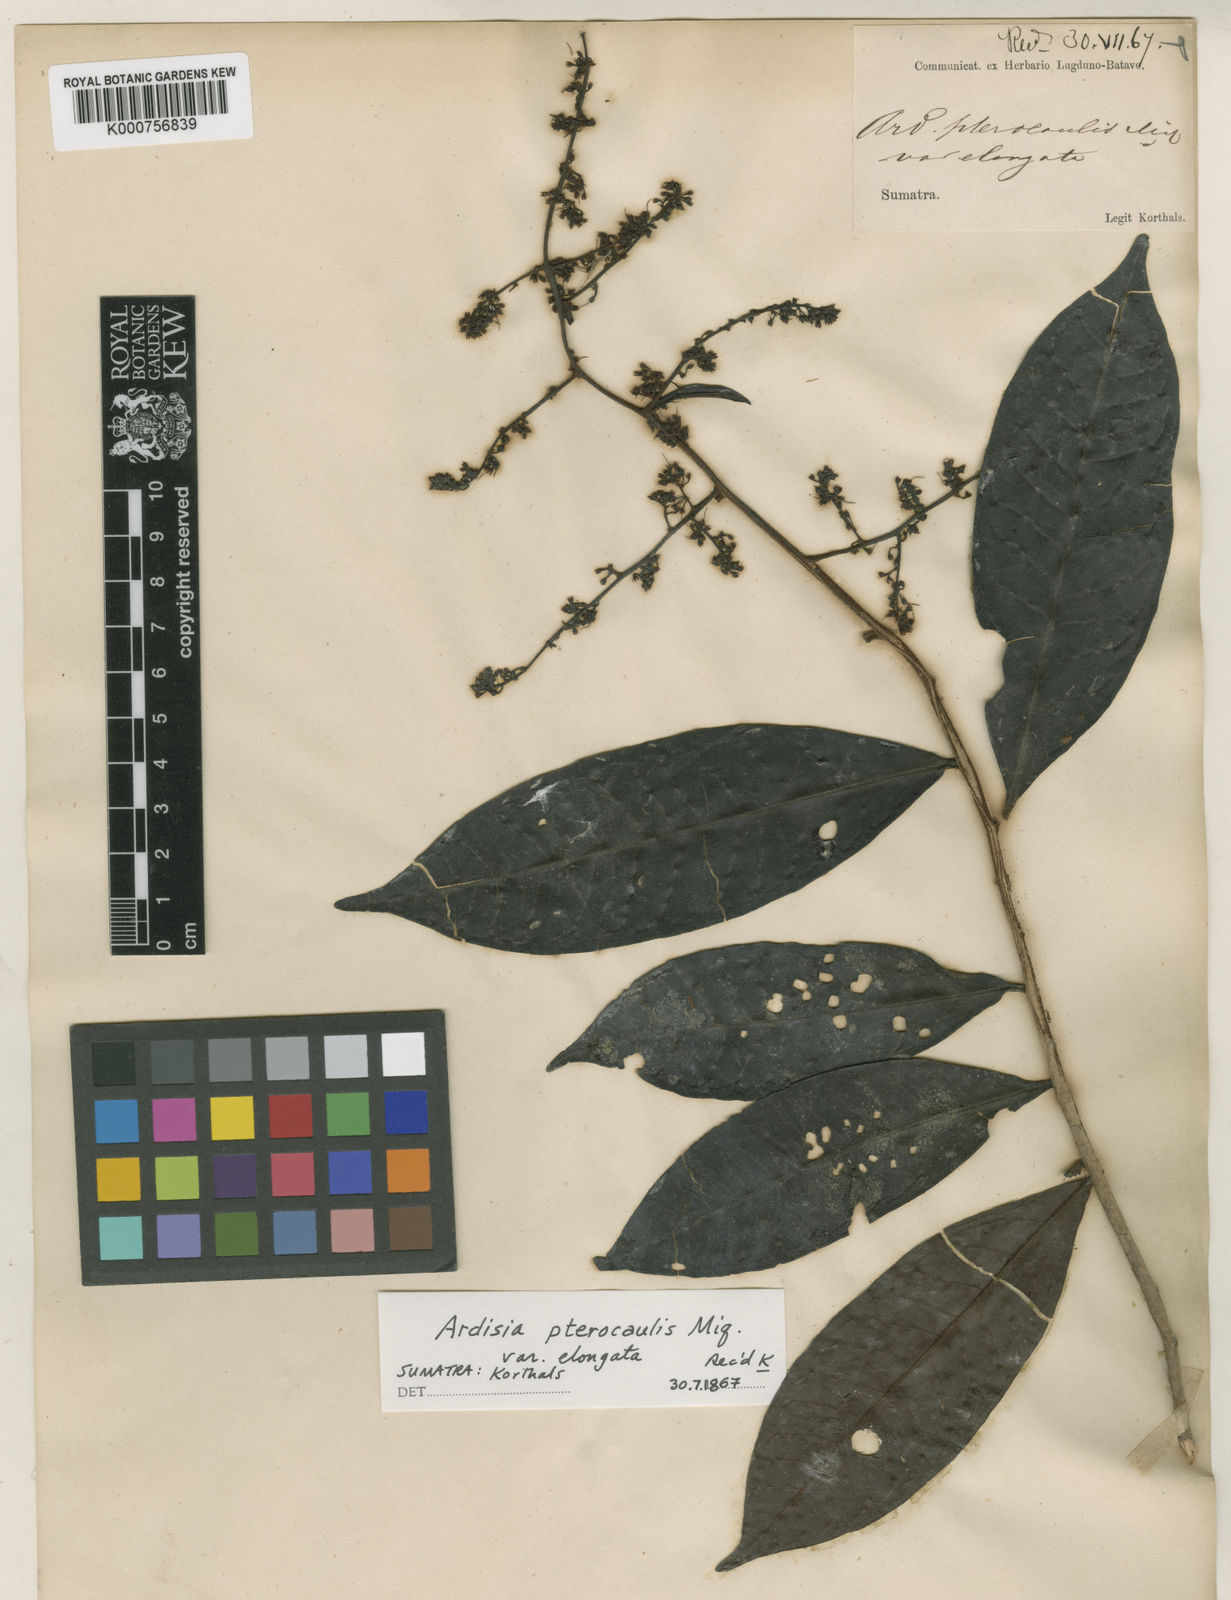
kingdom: Plantae
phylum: Tracheophyta
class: Magnoliopsida
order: Ericales
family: Primulaceae
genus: Ardisia
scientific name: Ardisia pterocaulis
